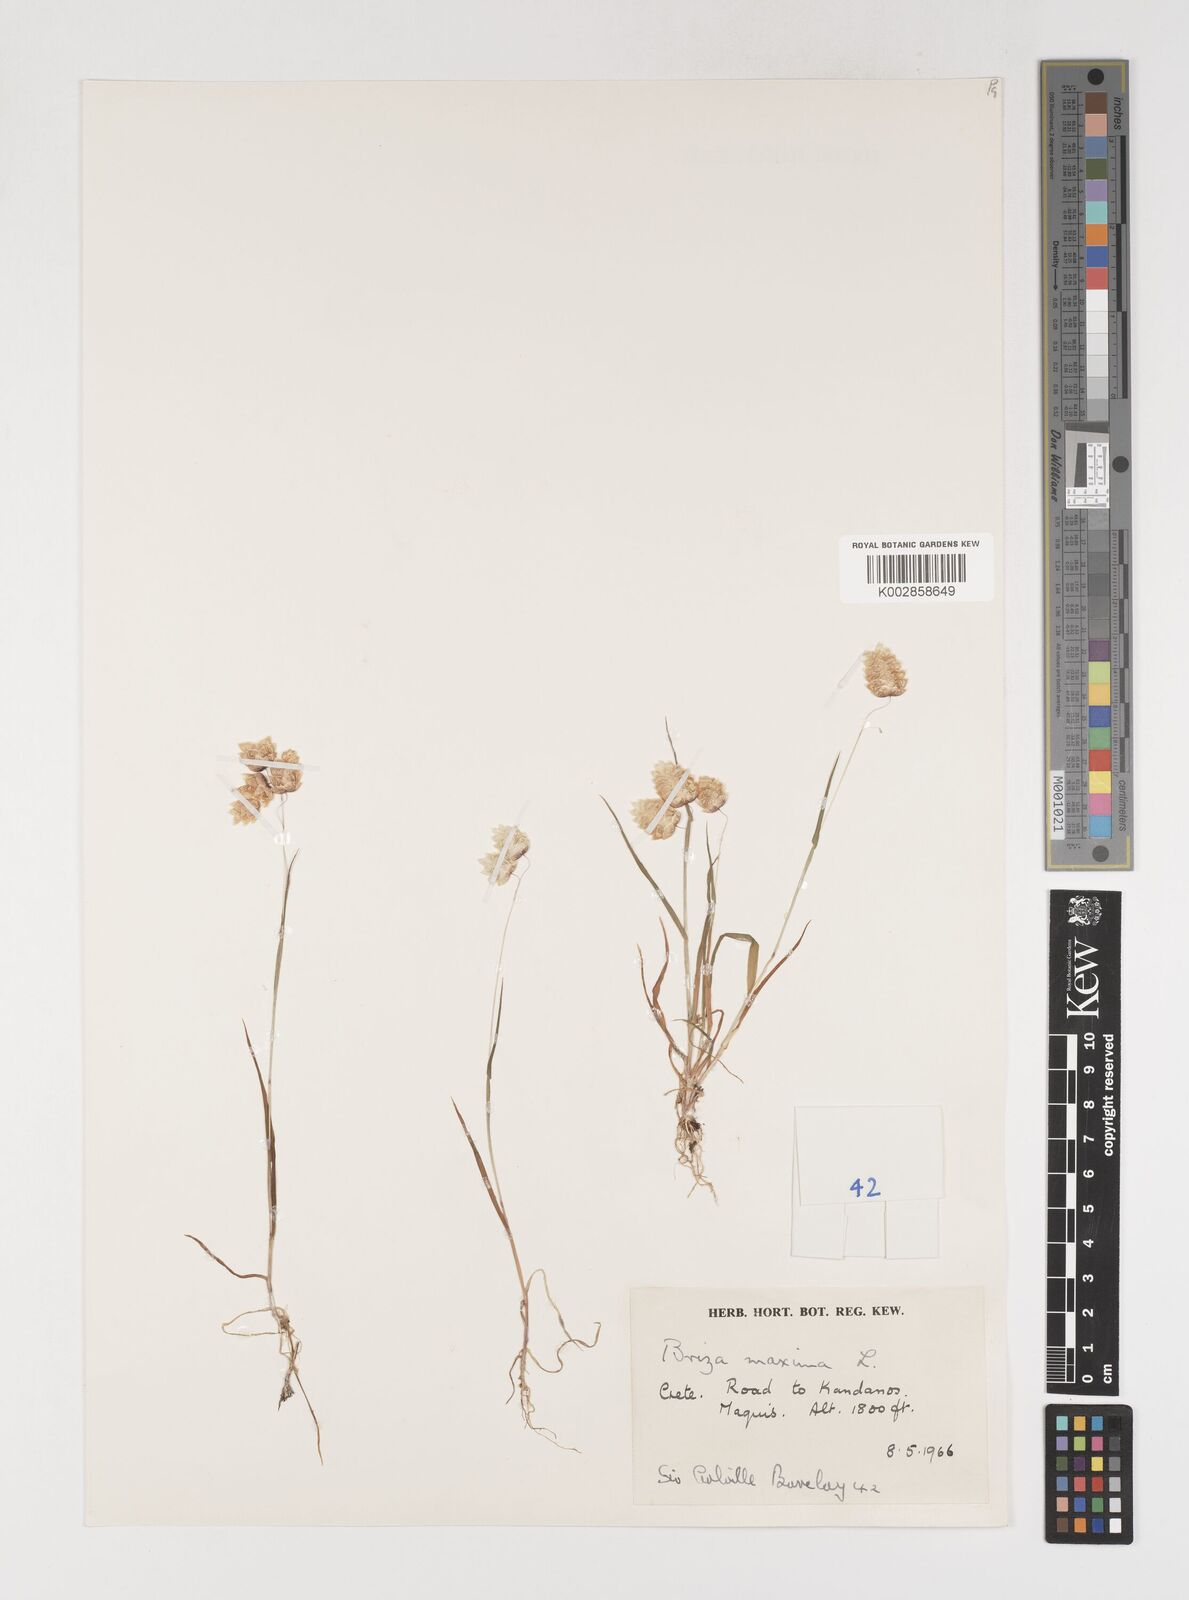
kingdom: Plantae
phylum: Tracheophyta
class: Liliopsida
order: Poales
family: Poaceae
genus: Briza
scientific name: Briza maxima
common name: Big quakinggrass
